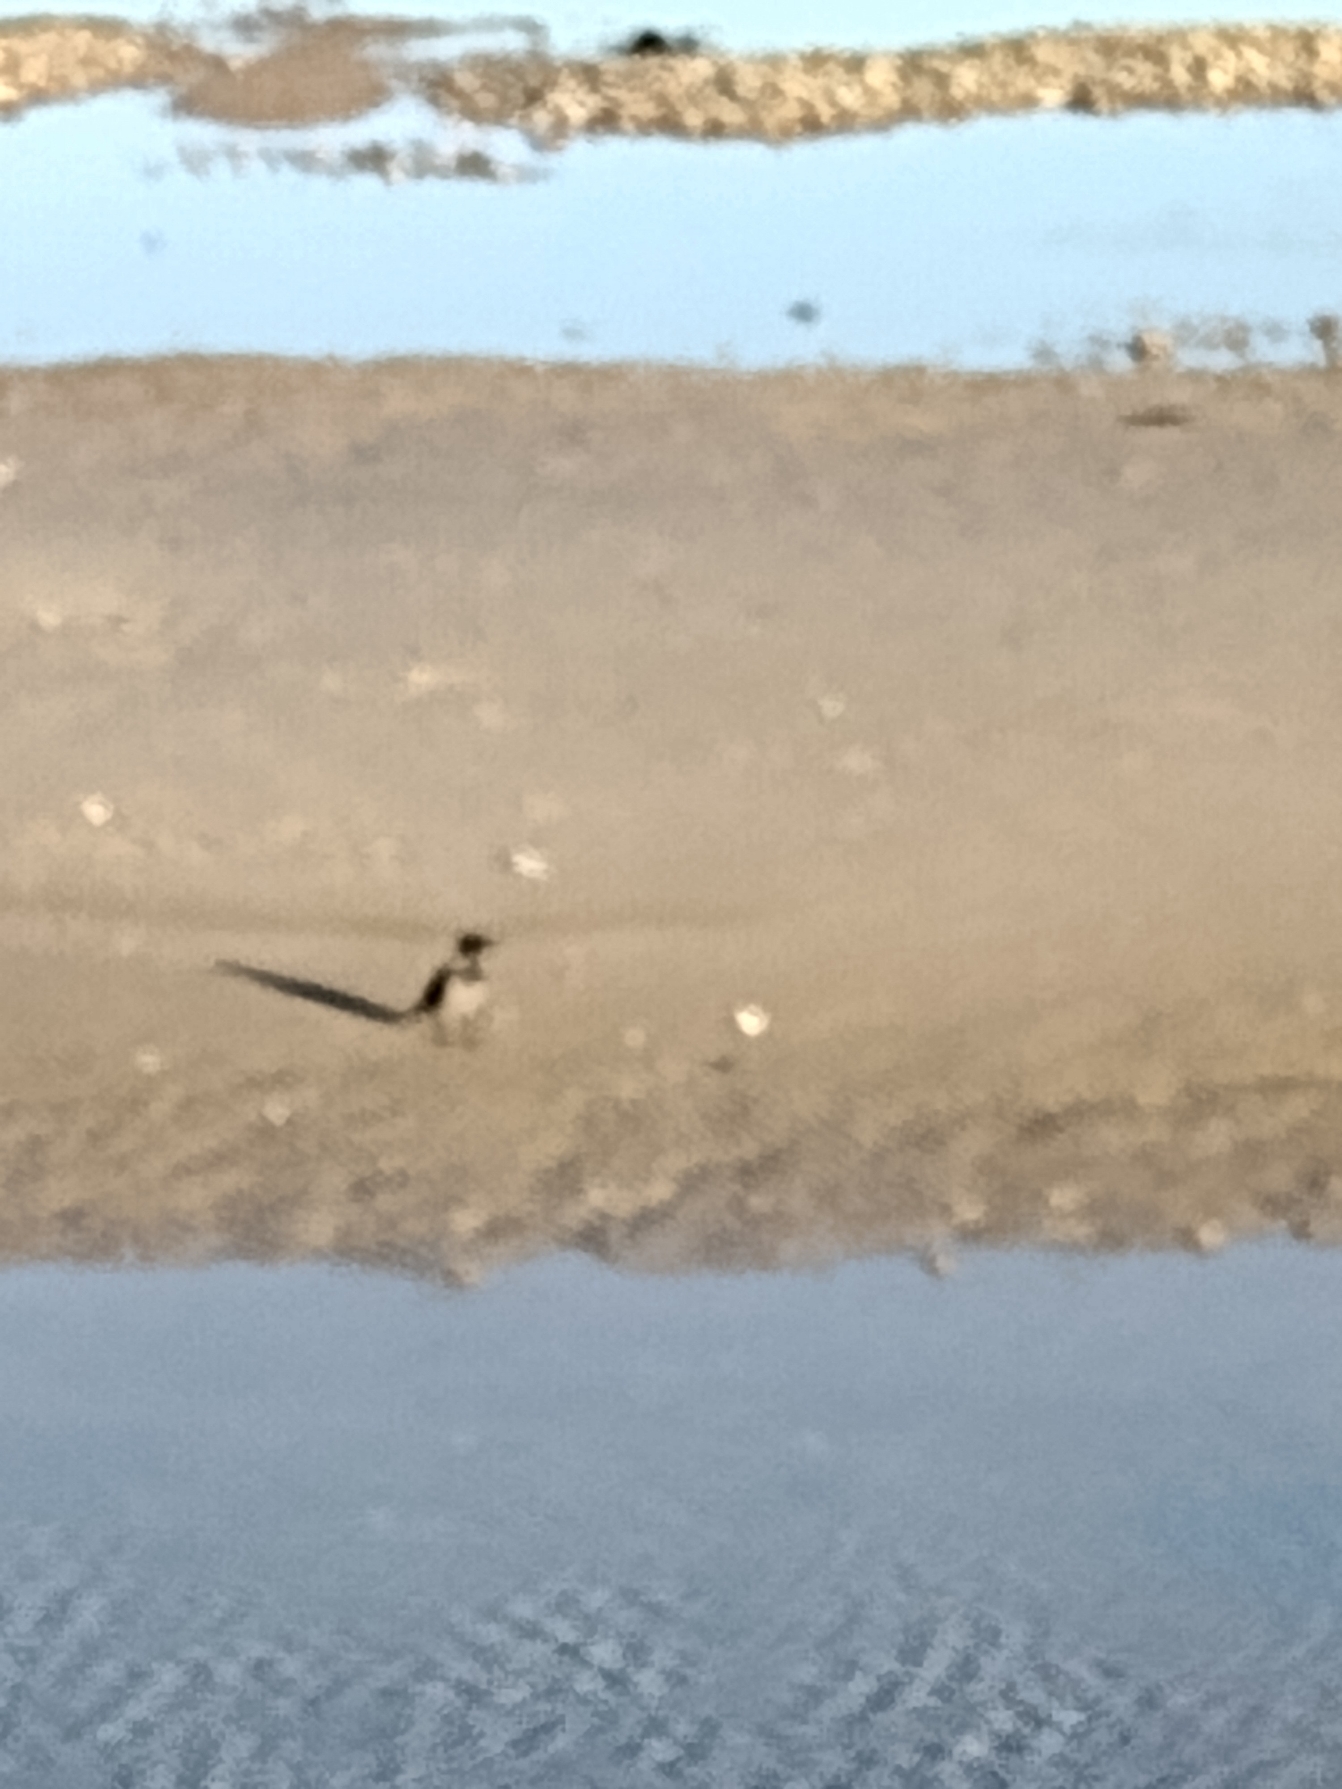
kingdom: Animalia
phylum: Chordata
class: Aves
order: Passeriformes
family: Corvidae
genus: Corvus
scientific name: Corvus cornix
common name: Gråkrage
